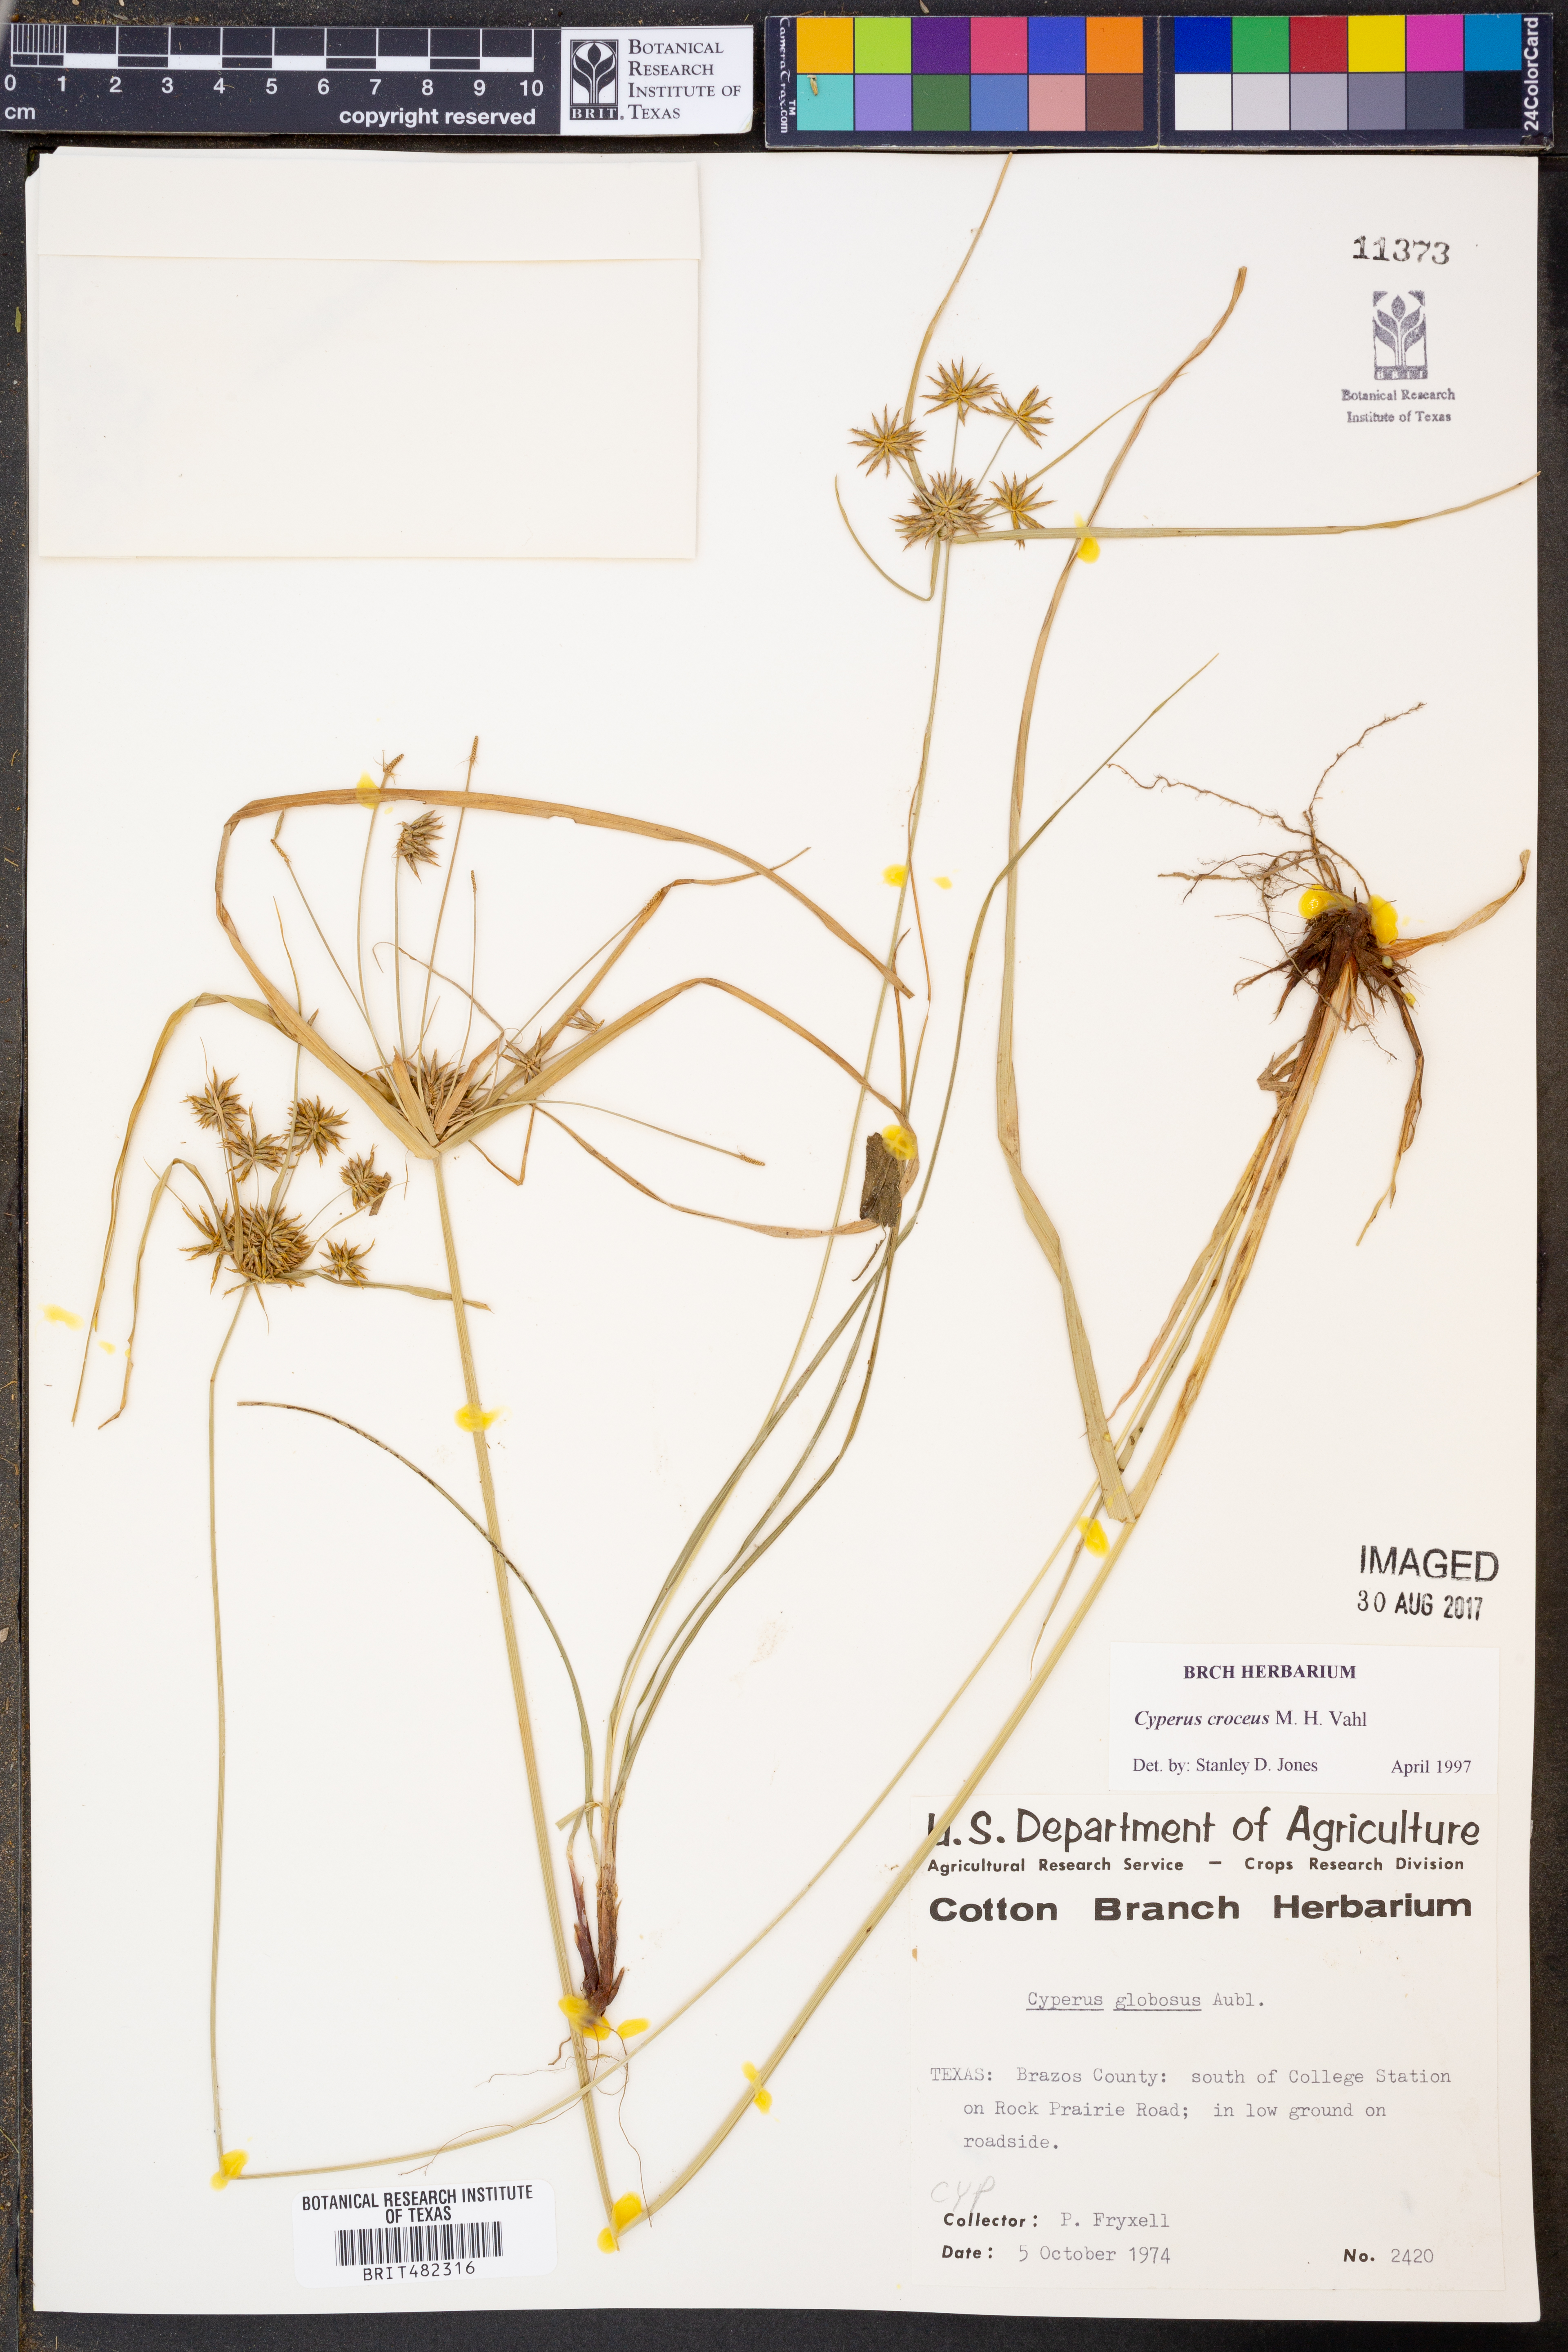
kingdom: Plantae
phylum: Tracheophyta
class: Liliopsida
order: Poales
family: Cyperaceae
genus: Cyperus
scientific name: Cyperus croceus
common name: Baldwin's flatsedge
